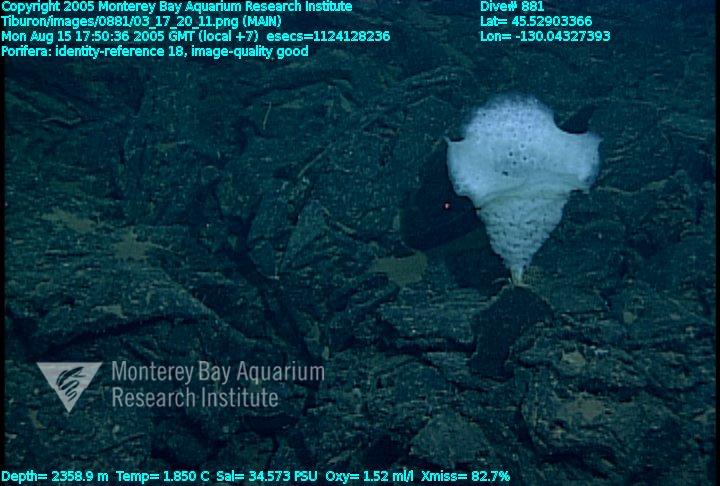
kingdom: Animalia
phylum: Porifera
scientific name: Porifera
